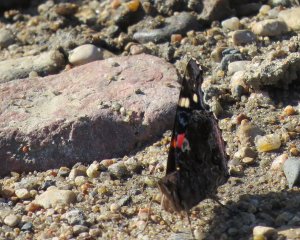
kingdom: Animalia
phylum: Arthropoda
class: Insecta
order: Lepidoptera
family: Nymphalidae
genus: Vanessa
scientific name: Vanessa atalanta
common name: Red Admiral
